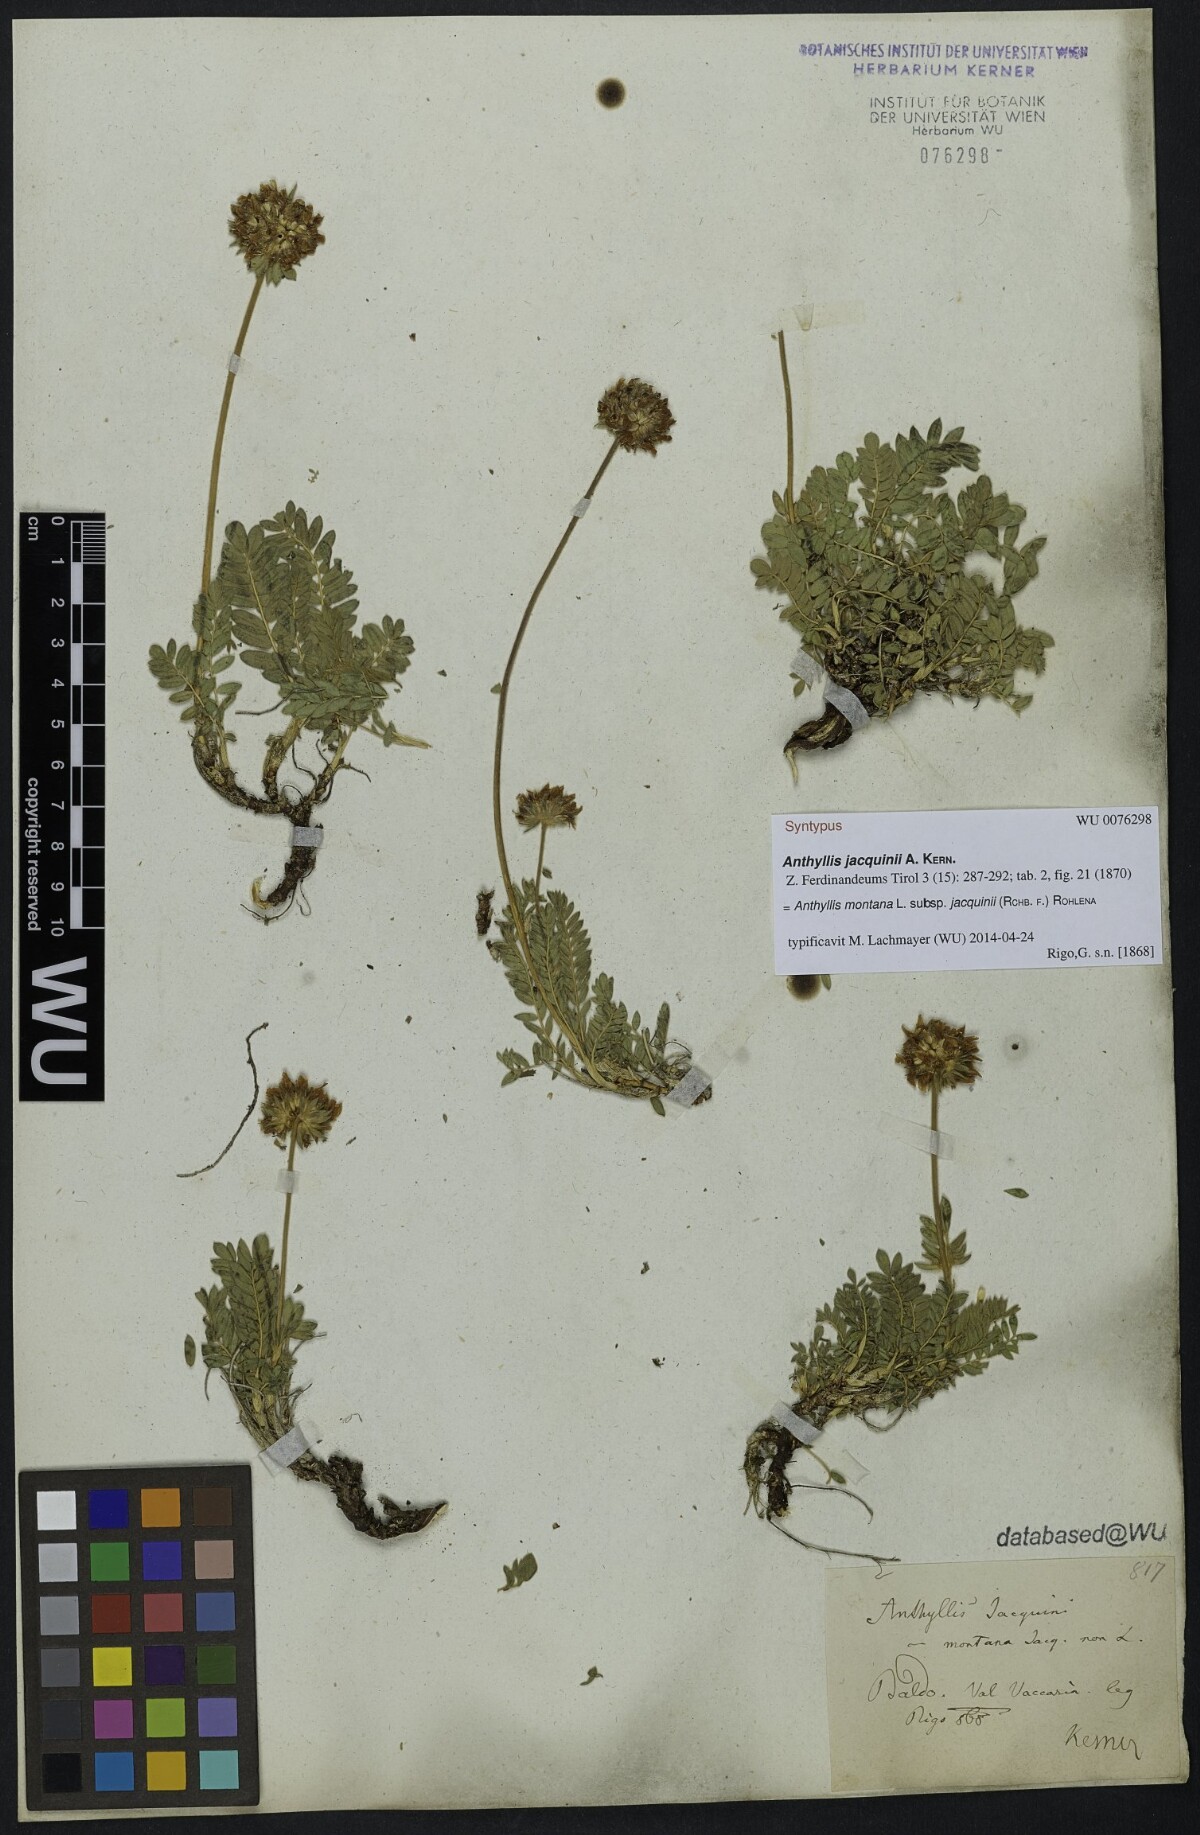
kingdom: Plantae
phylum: Tracheophyta
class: Magnoliopsida
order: Fabales
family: Fabaceae
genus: Anthyllis
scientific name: Anthyllis montana
